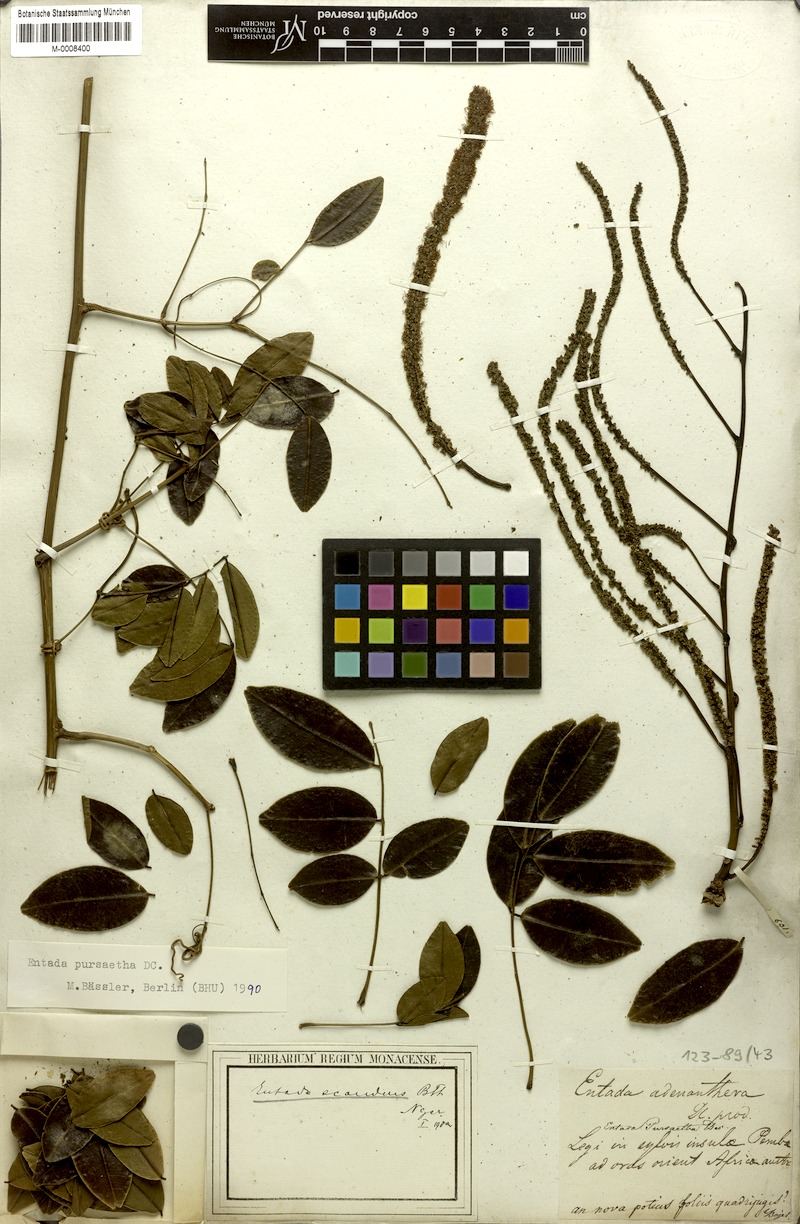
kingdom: Plantae
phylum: Tracheophyta
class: Magnoliopsida
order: Fabales
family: Fabaceae
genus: Entada
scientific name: Entada rheedei
